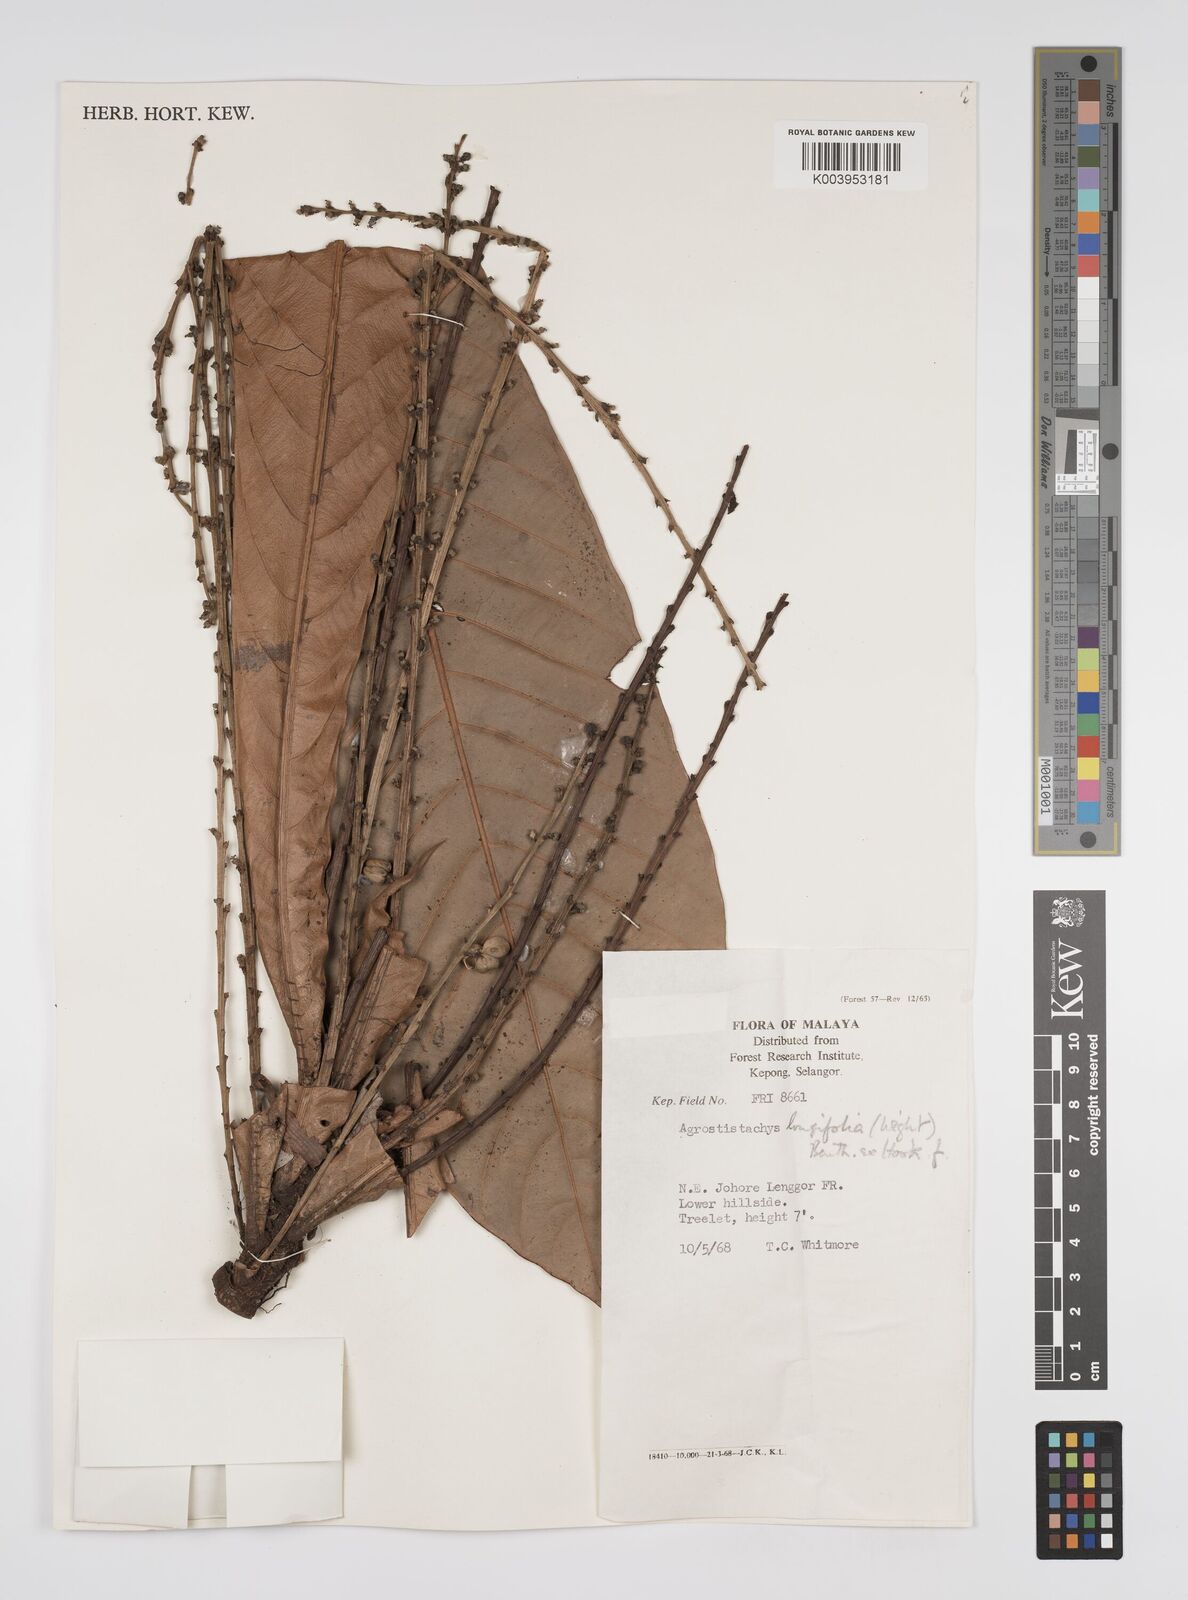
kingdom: Plantae
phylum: Tracheophyta
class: Magnoliopsida
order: Malpighiales
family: Euphorbiaceae
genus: Agrostistachys
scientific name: Agrostistachys borneensis
